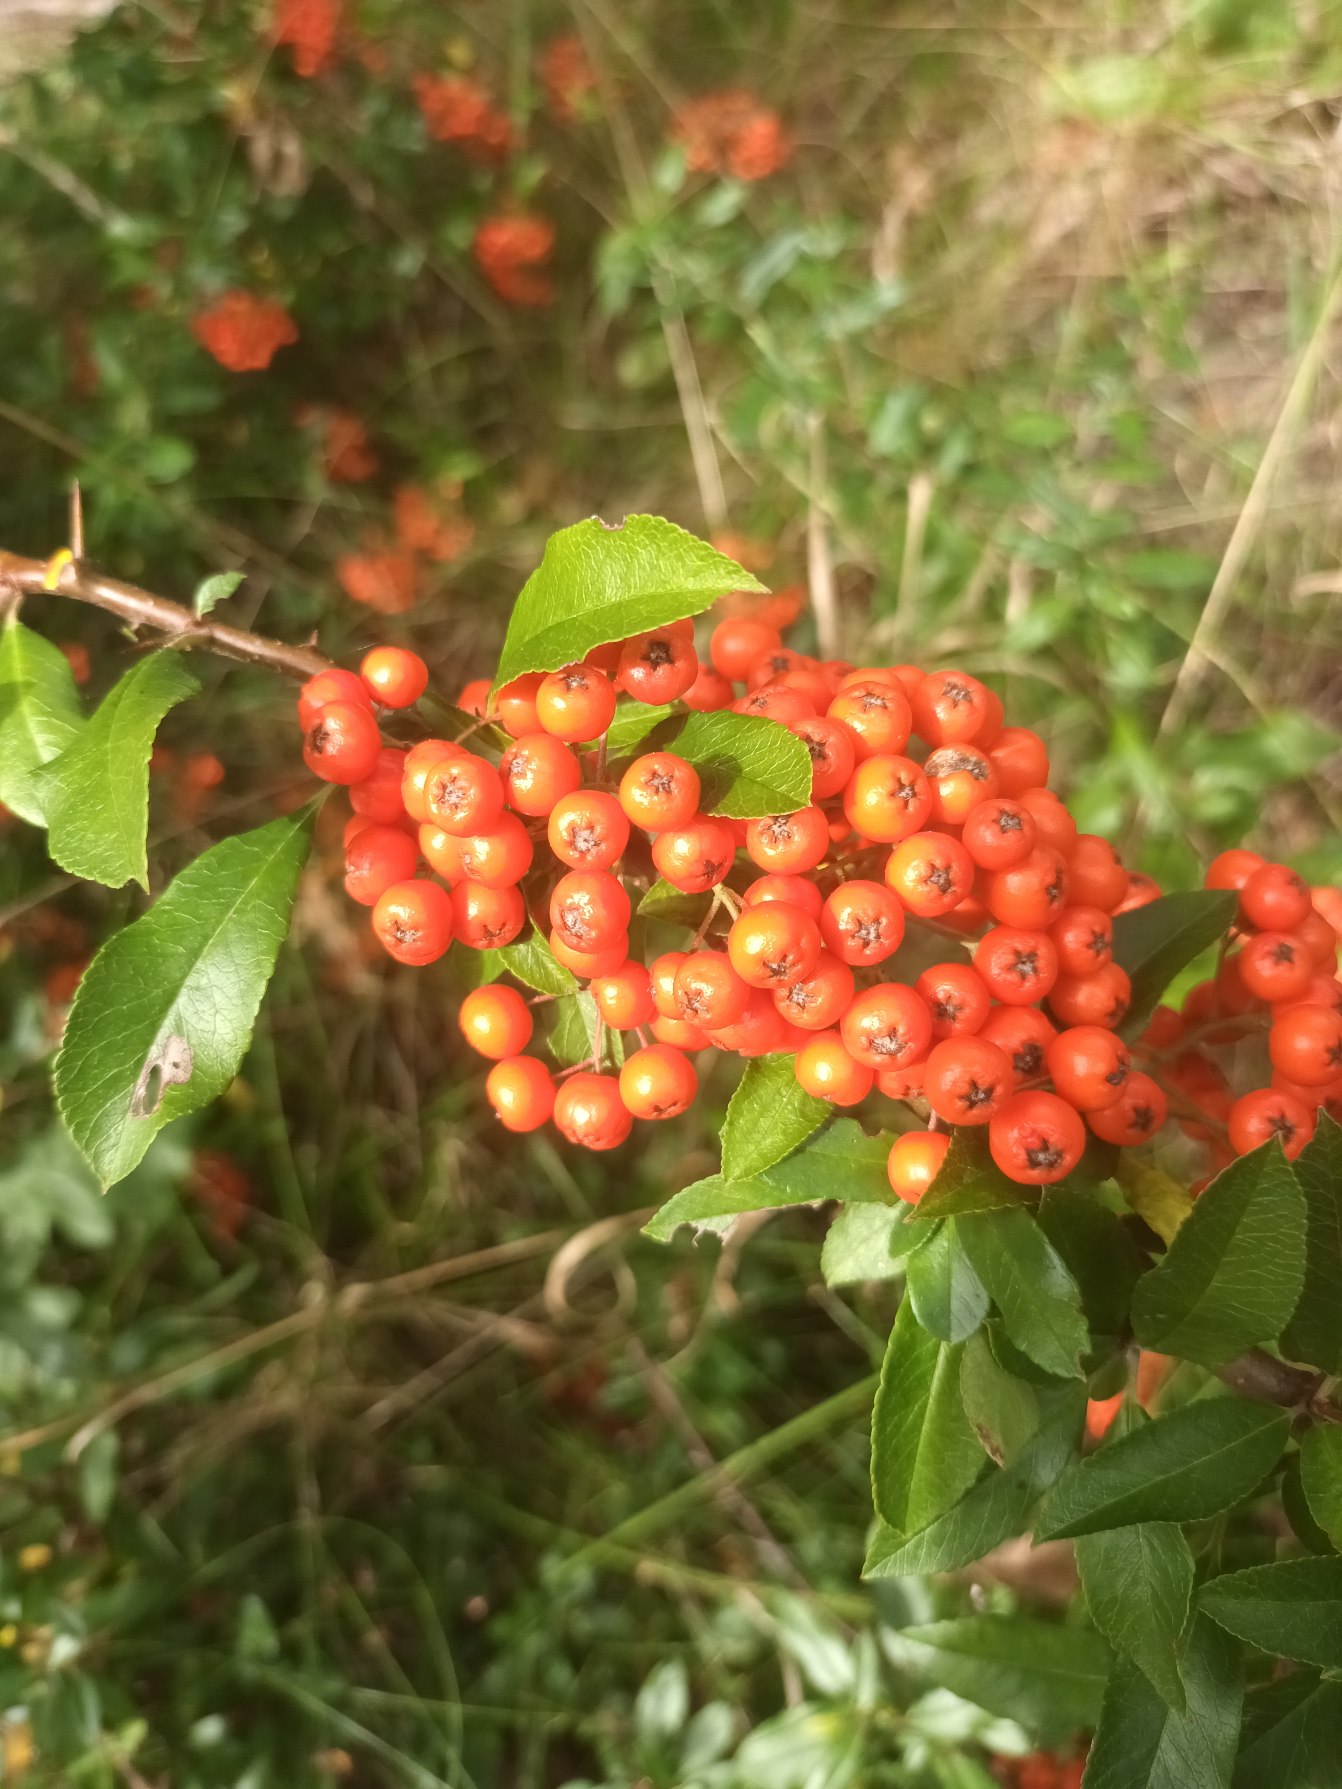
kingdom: Plantae
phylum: Tracheophyta
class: Magnoliopsida
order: Rosales
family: Rosaceae
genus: Pyracantha
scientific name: Pyracantha coccinea
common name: Ildtorn
